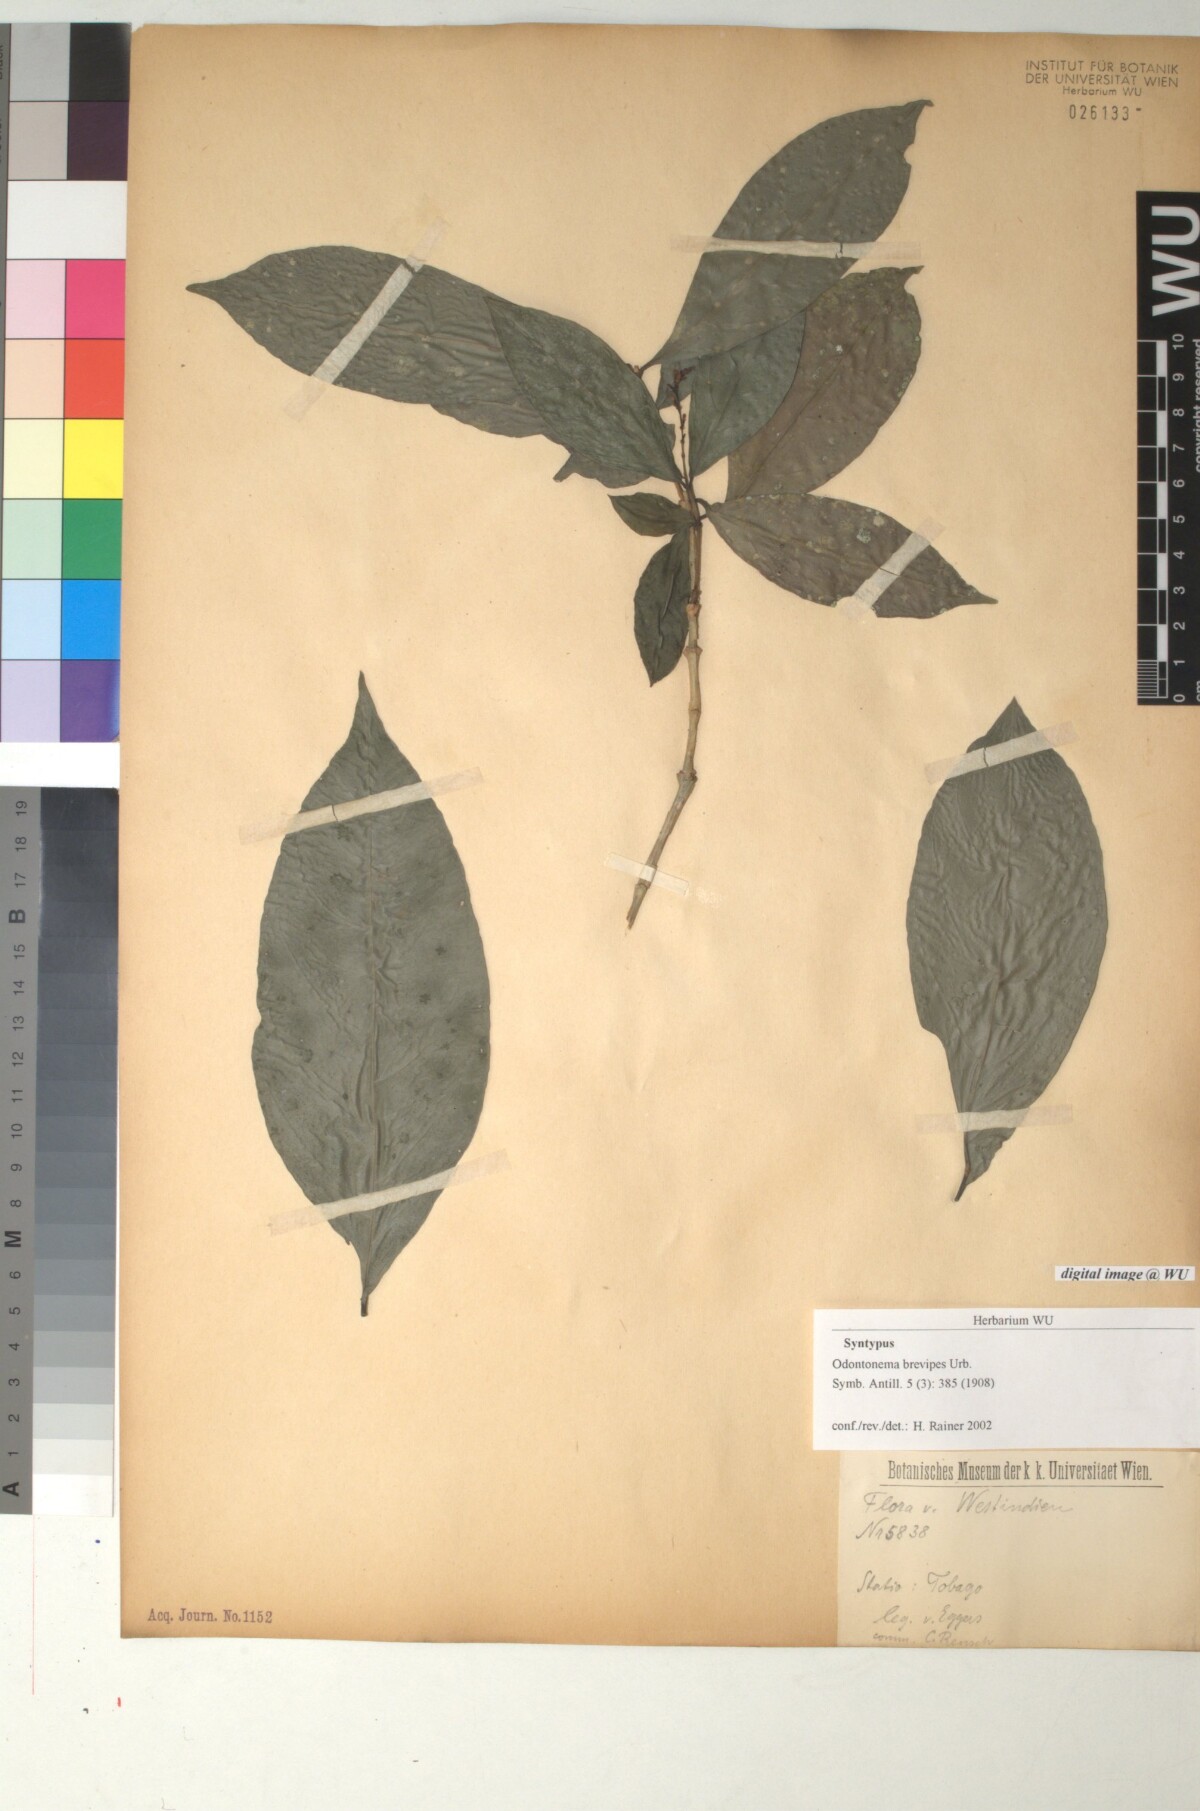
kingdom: Plantae
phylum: Tracheophyta
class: Magnoliopsida
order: Lamiales
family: Acanthaceae
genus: Odontonema
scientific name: Odontonema brevipes
